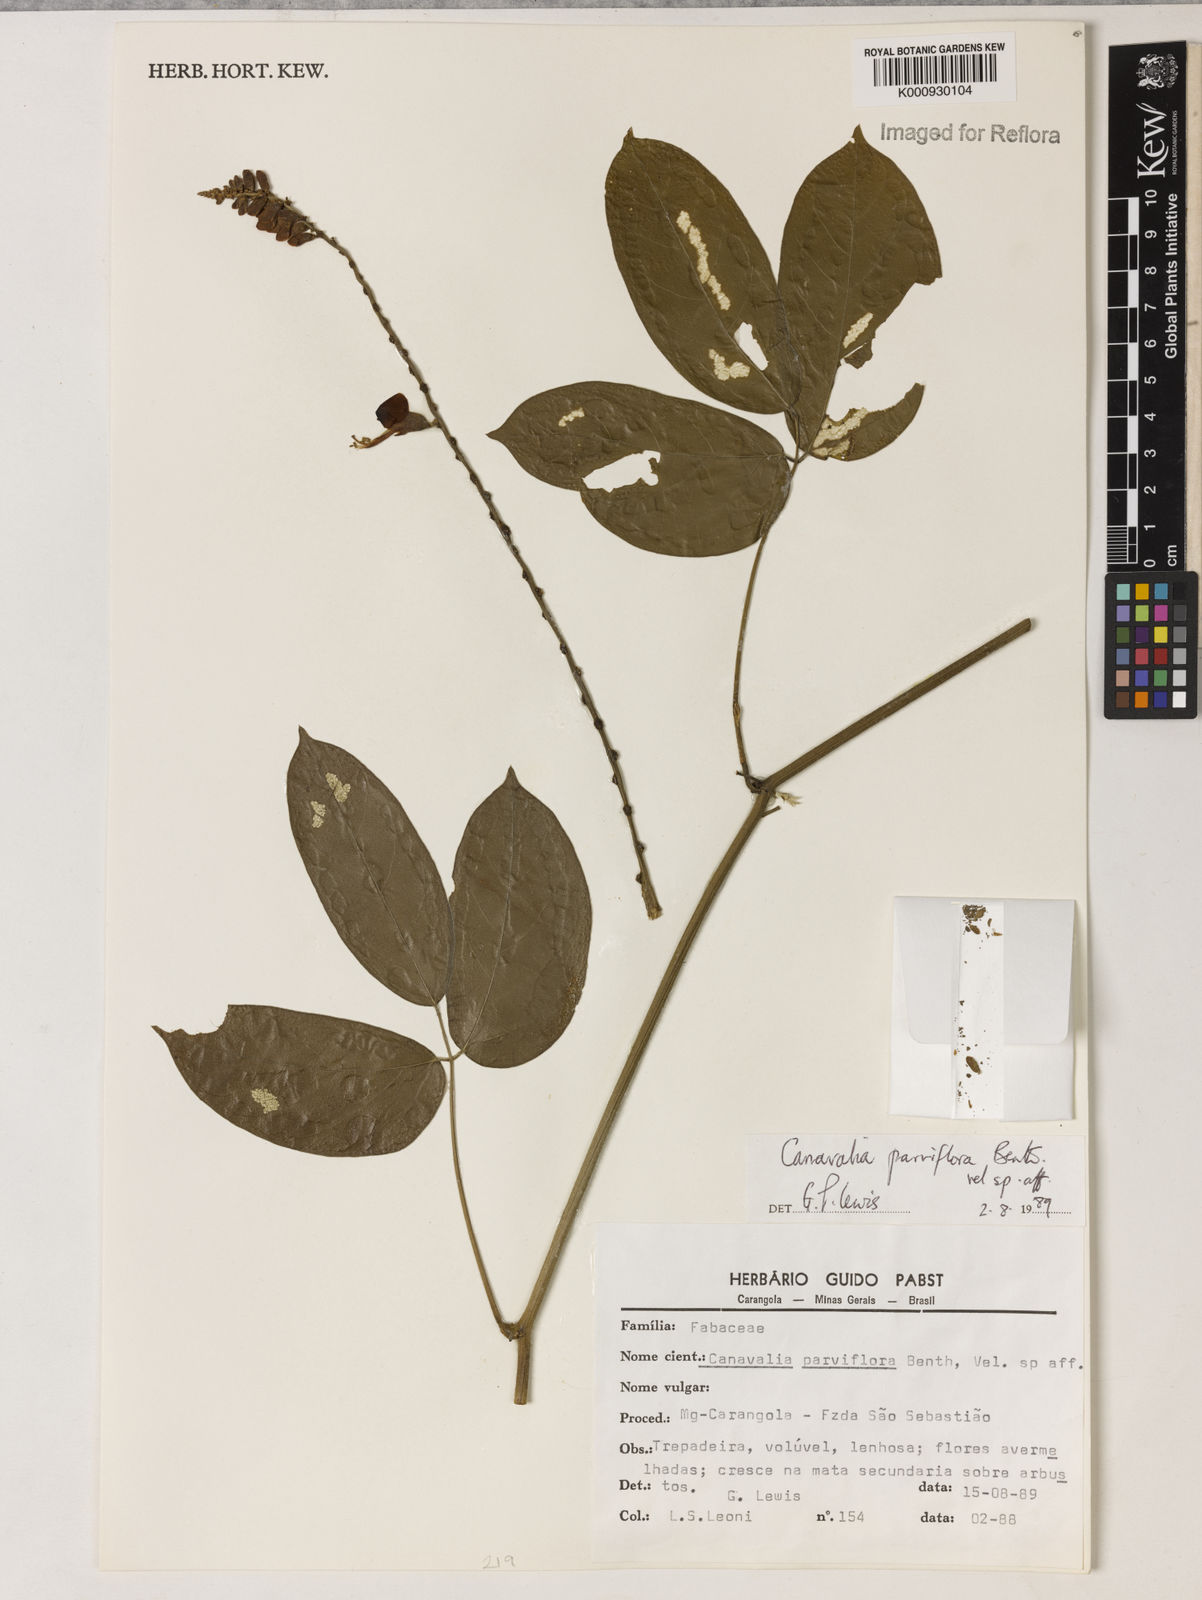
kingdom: Plantae
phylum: Tracheophyta
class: Magnoliopsida
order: Fabales
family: Fabaceae
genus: Canavalia
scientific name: Canavalia parviflora
